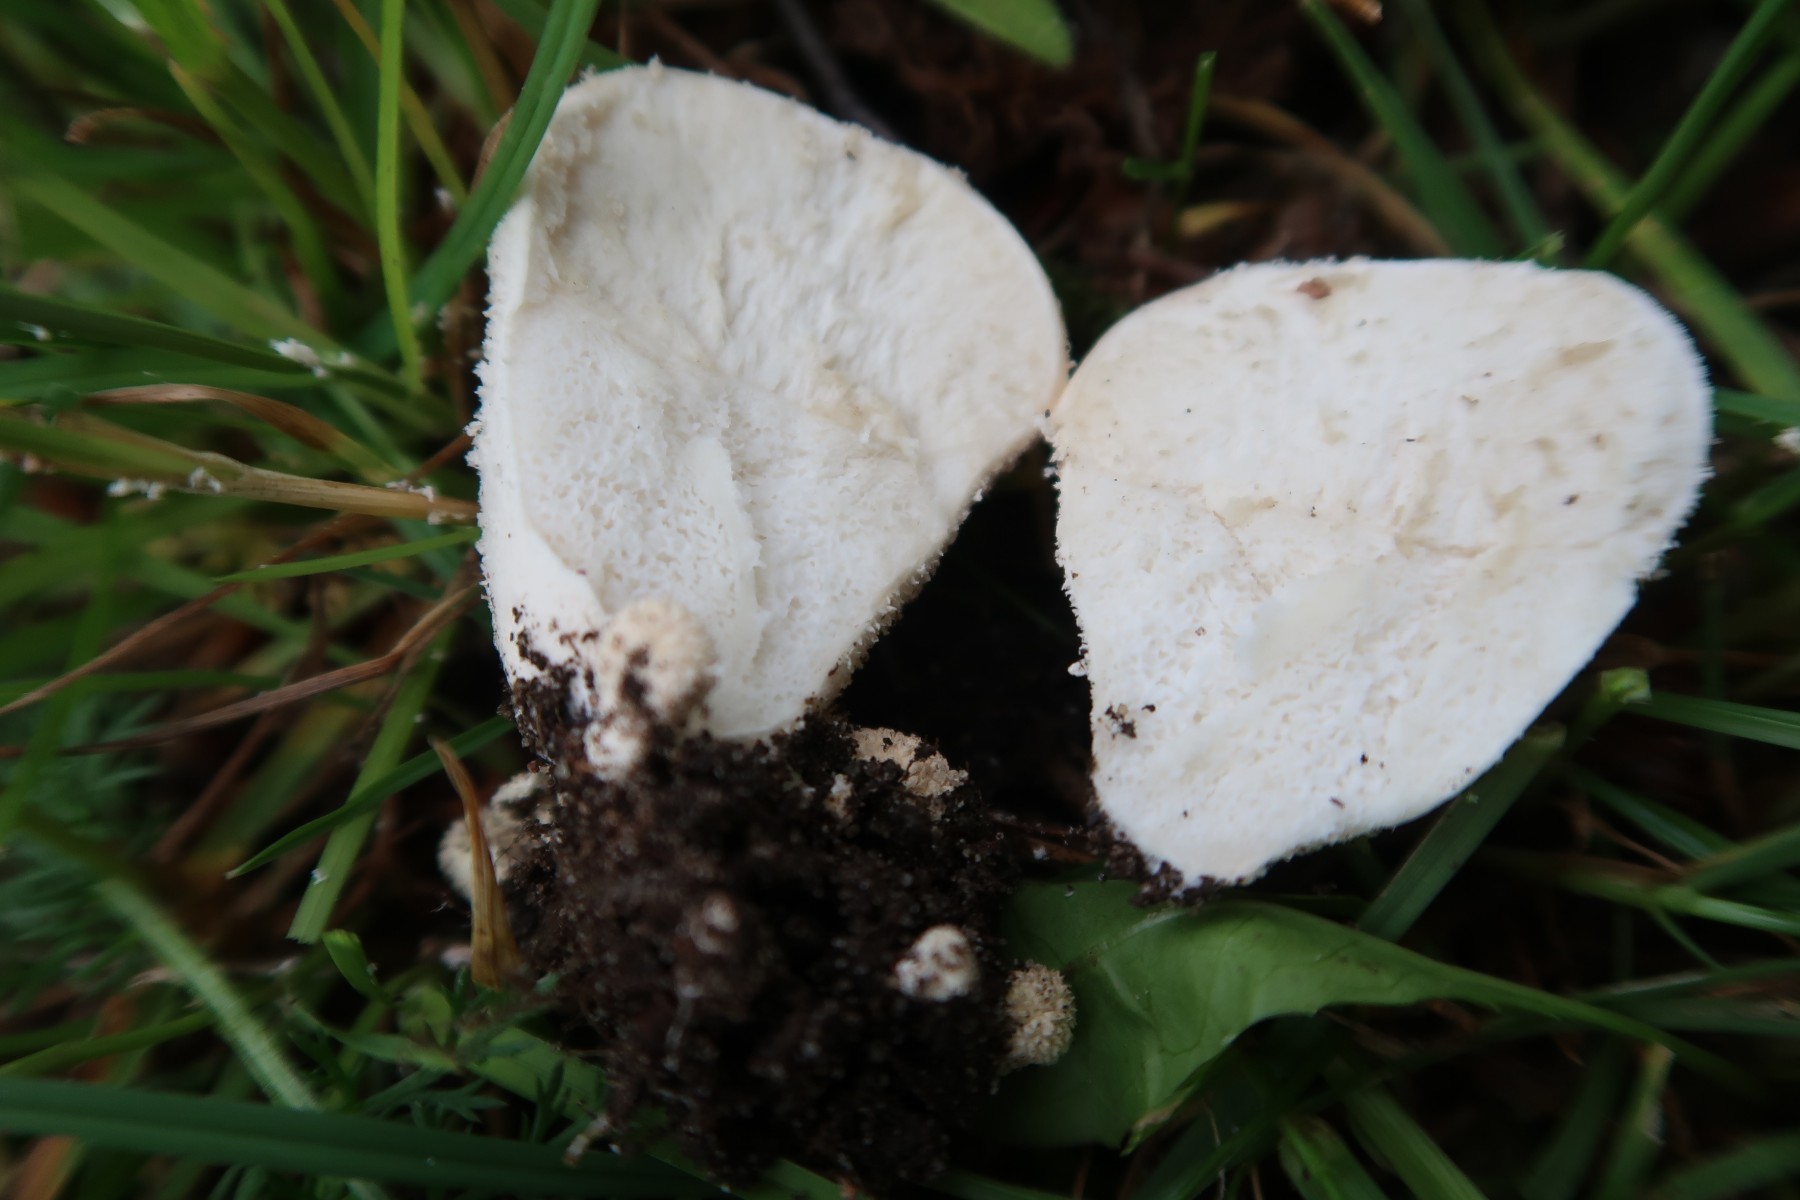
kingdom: Fungi
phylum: Basidiomycota
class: Agaricomycetes
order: Agaricales
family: Lycoperdaceae
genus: Lycoperdon
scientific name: Lycoperdon pratense
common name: flad støvbold
